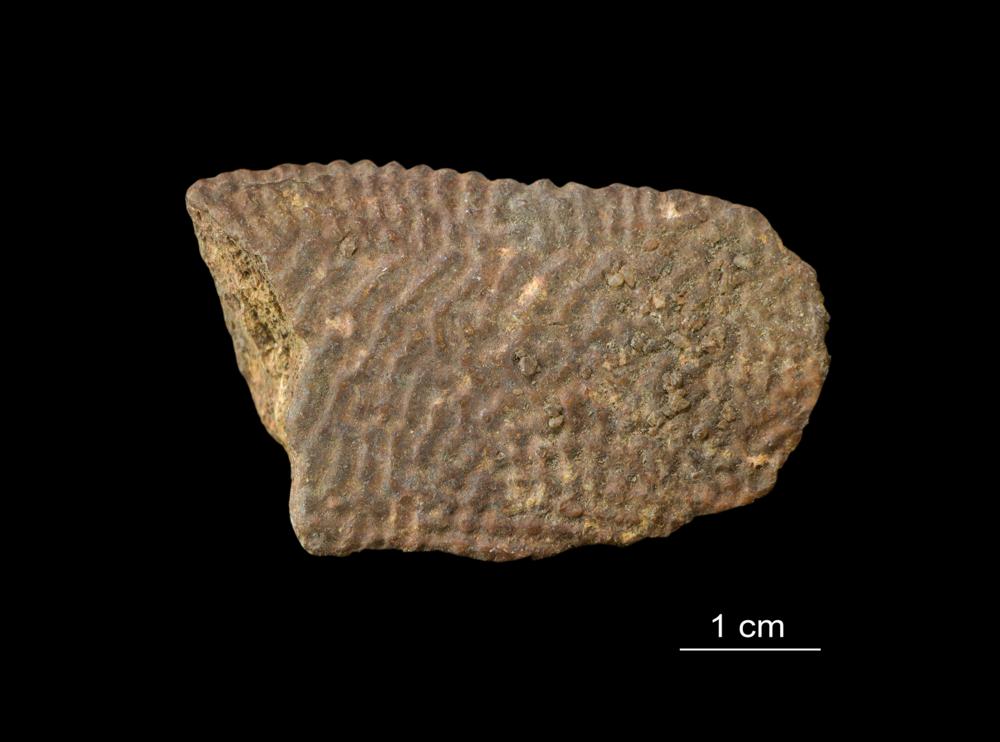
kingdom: Animalia
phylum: Chordata
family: Asterolepididae
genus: Asterolepis
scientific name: Asterolepis ornata
